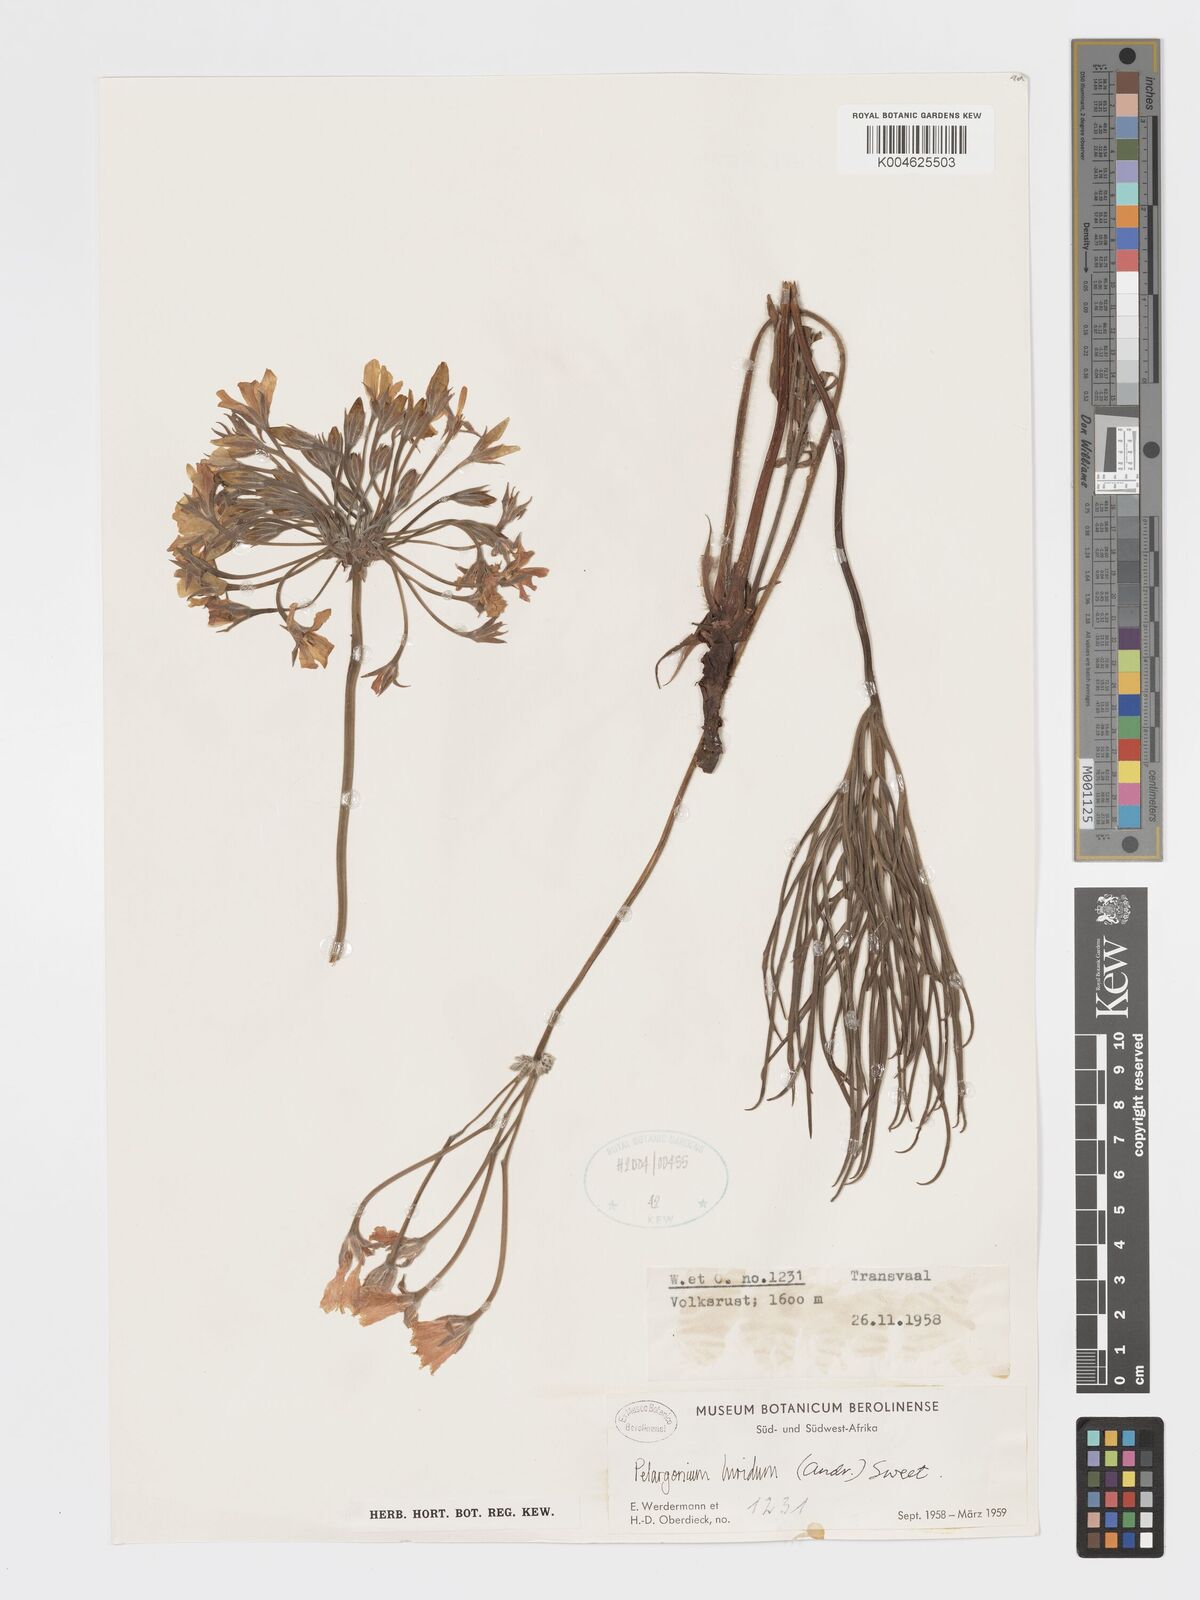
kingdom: Plantae
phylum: Tracheophyta
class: Magnoliopsida
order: Geraniales
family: Geraniaceae
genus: Pelargonium
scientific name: Pelargonium luridum
